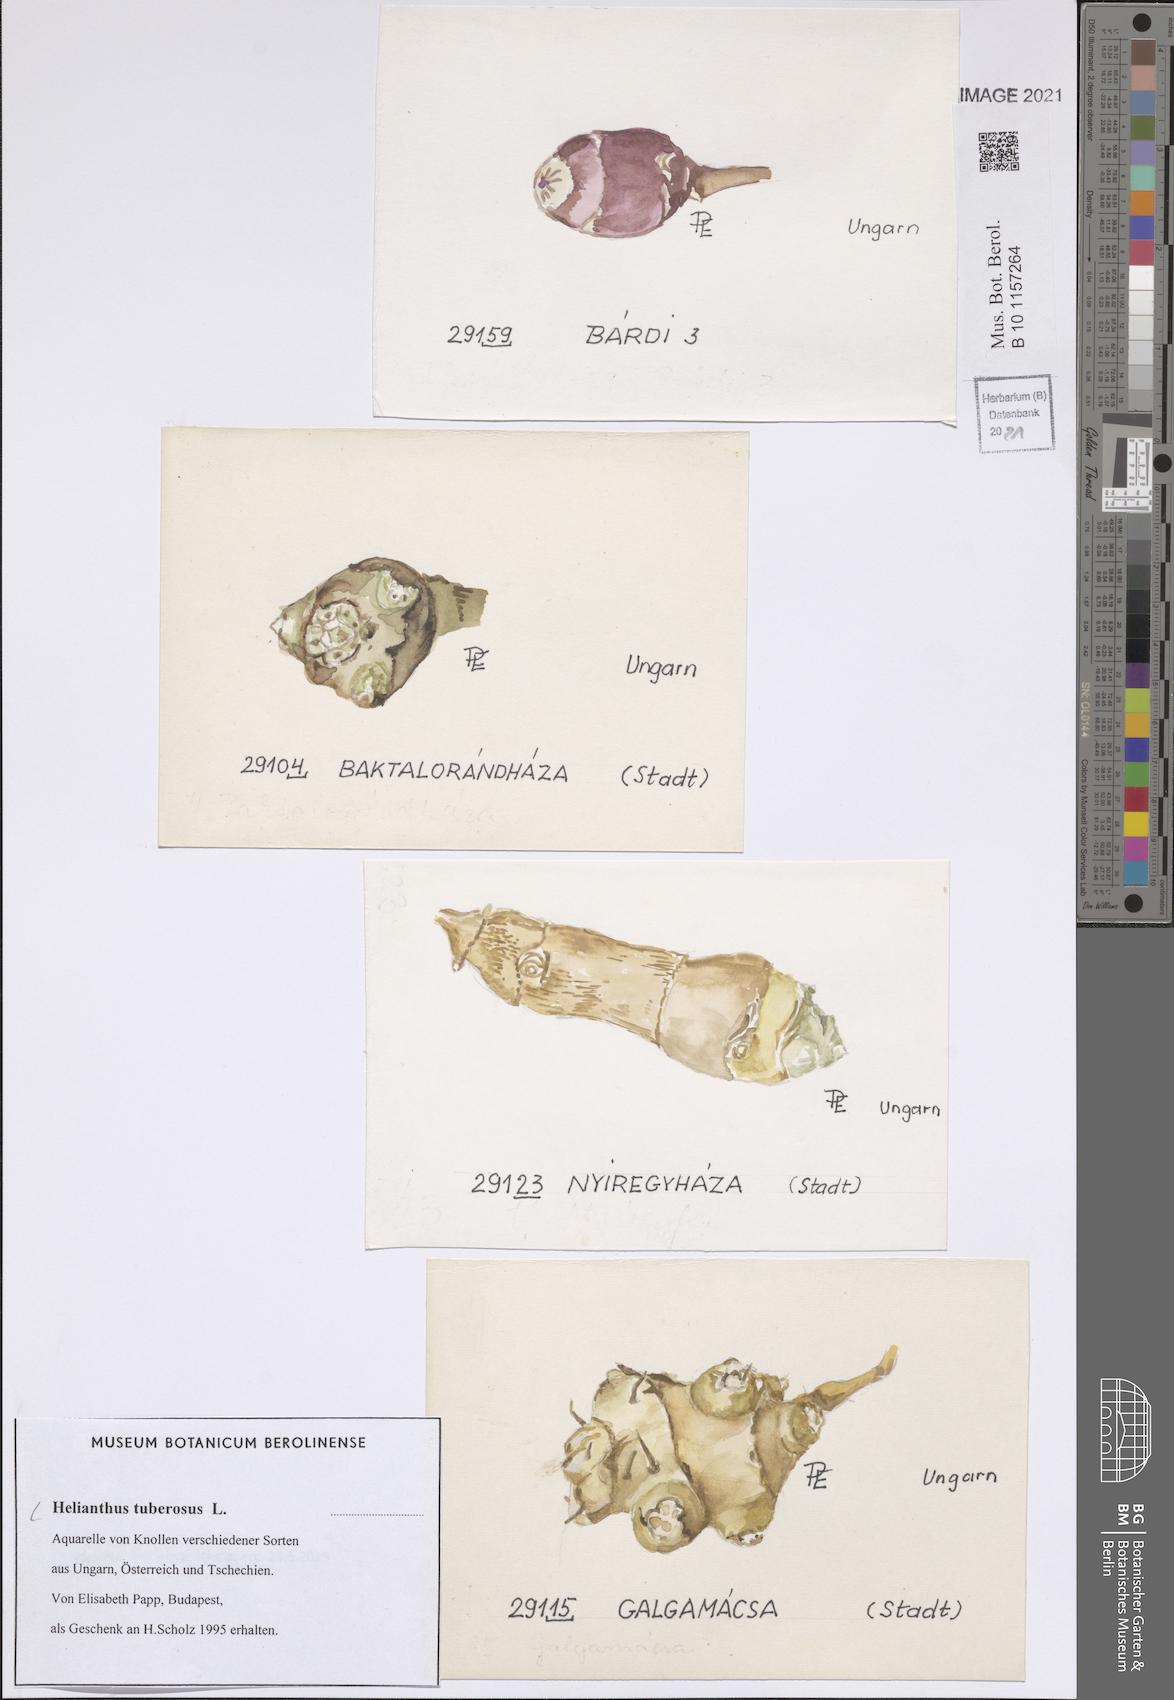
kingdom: Plantae
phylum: Tracheophyta
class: Magnoliopsida
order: Asterales
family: Asteraceae
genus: Helianthus
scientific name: Helianthus tuberosus
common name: Jerusalem artichoke
